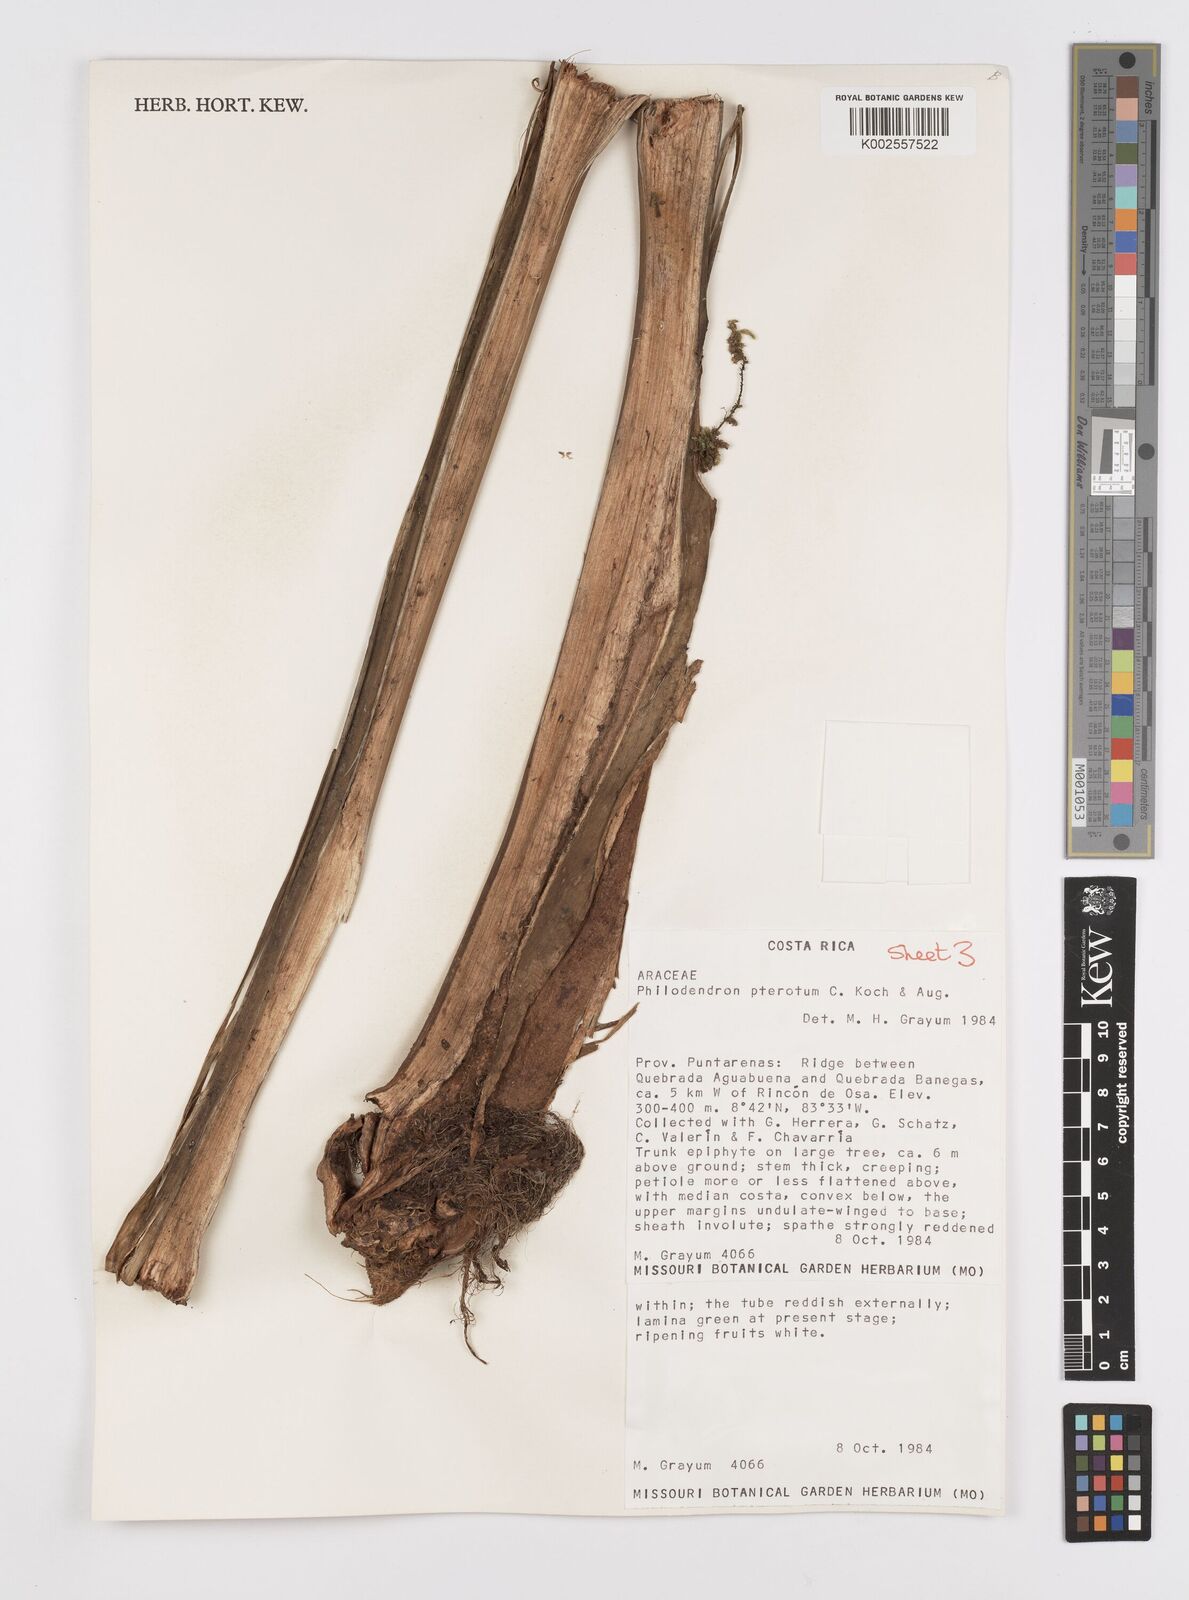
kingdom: Plantae
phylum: Tracheophyta
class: Liliopsida
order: Alismatales
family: Araceae
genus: Philodendron
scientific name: Philodendron pterotum
